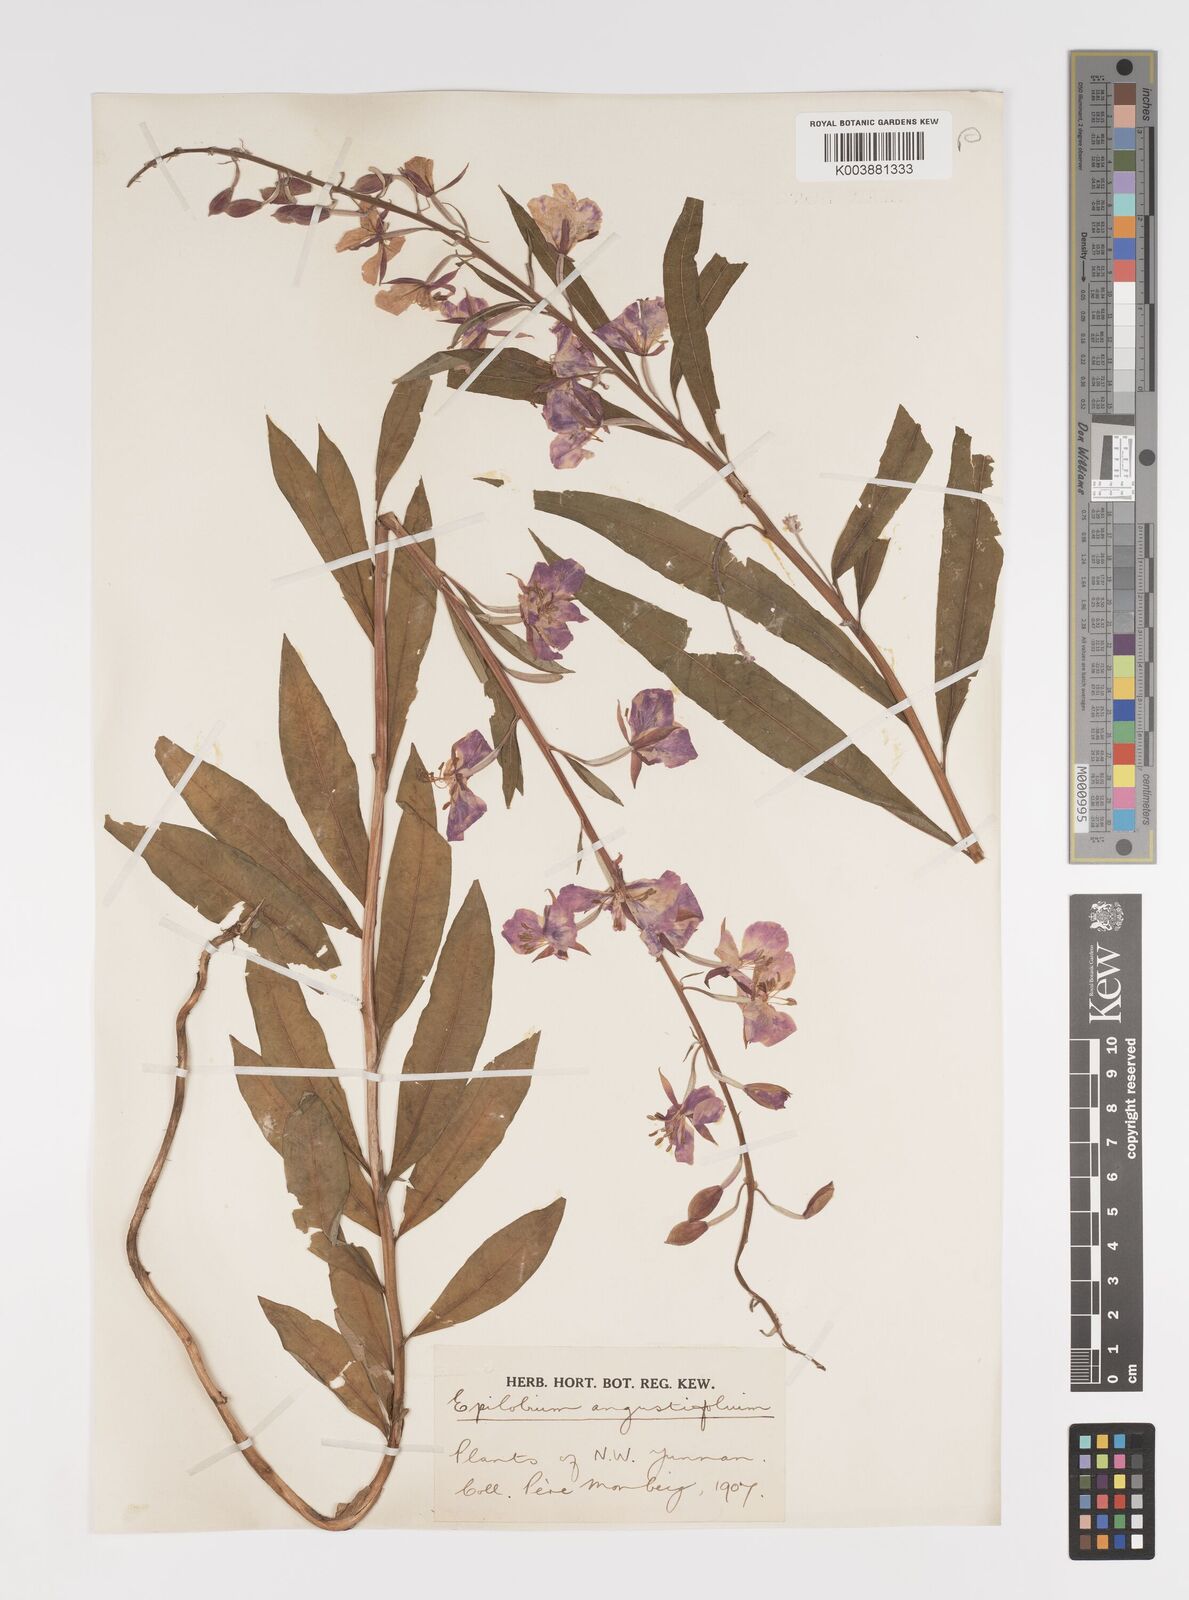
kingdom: Plantae
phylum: Tracheophyta
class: Magnoliopsida
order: Myrtales
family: Onagraceae
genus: Chamaenerion
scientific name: Chamaenerion angustifolium
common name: Fireweed
